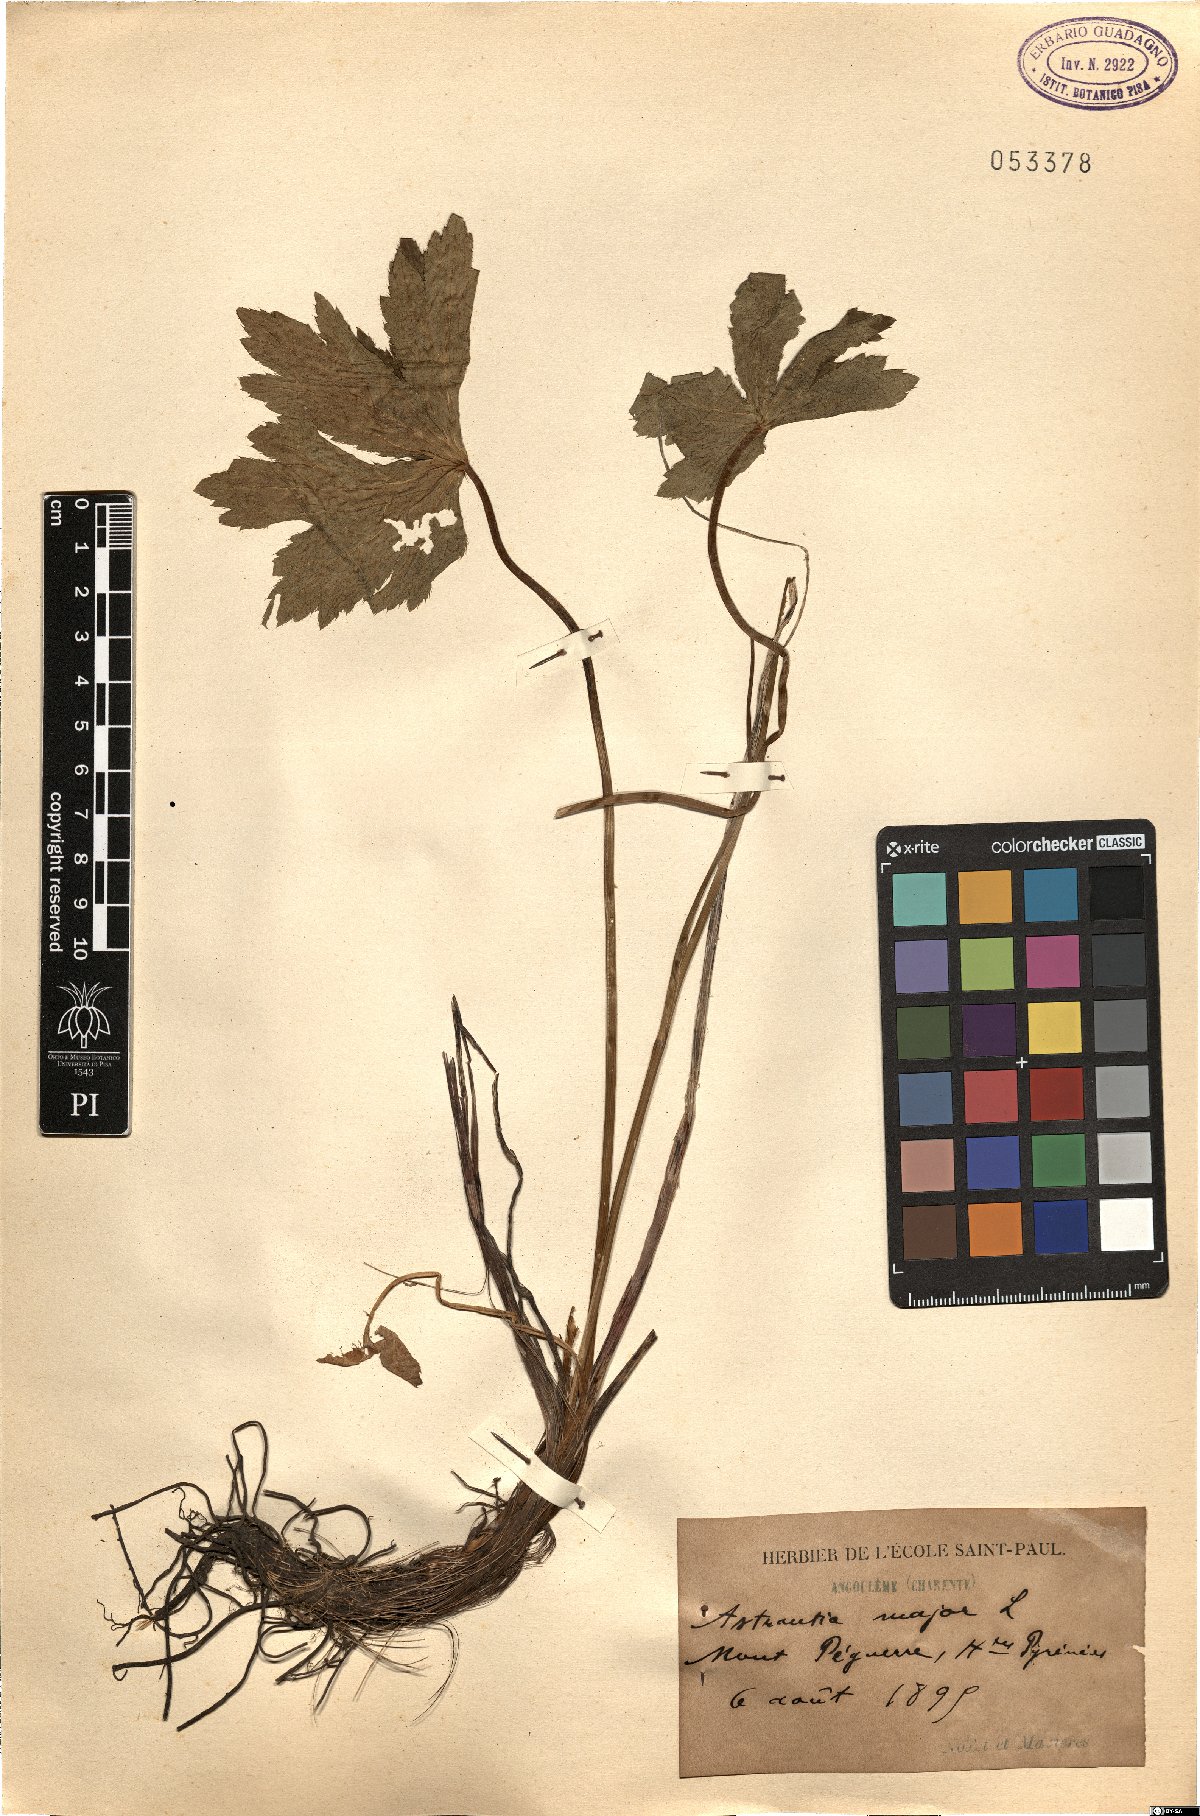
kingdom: Plantae
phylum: Tracheophyta
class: Magnoliopsida
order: Apiales
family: Apiaceae
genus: Astrantia
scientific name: Astrantia major
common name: Greater masterwort
